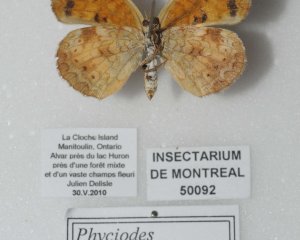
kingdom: Animalia
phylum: Arthropoda
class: Insecta
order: Lepidoptera
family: Nymphalidae
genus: Phyciodes
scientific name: Phyciodes tharos
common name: Northern Crescent
